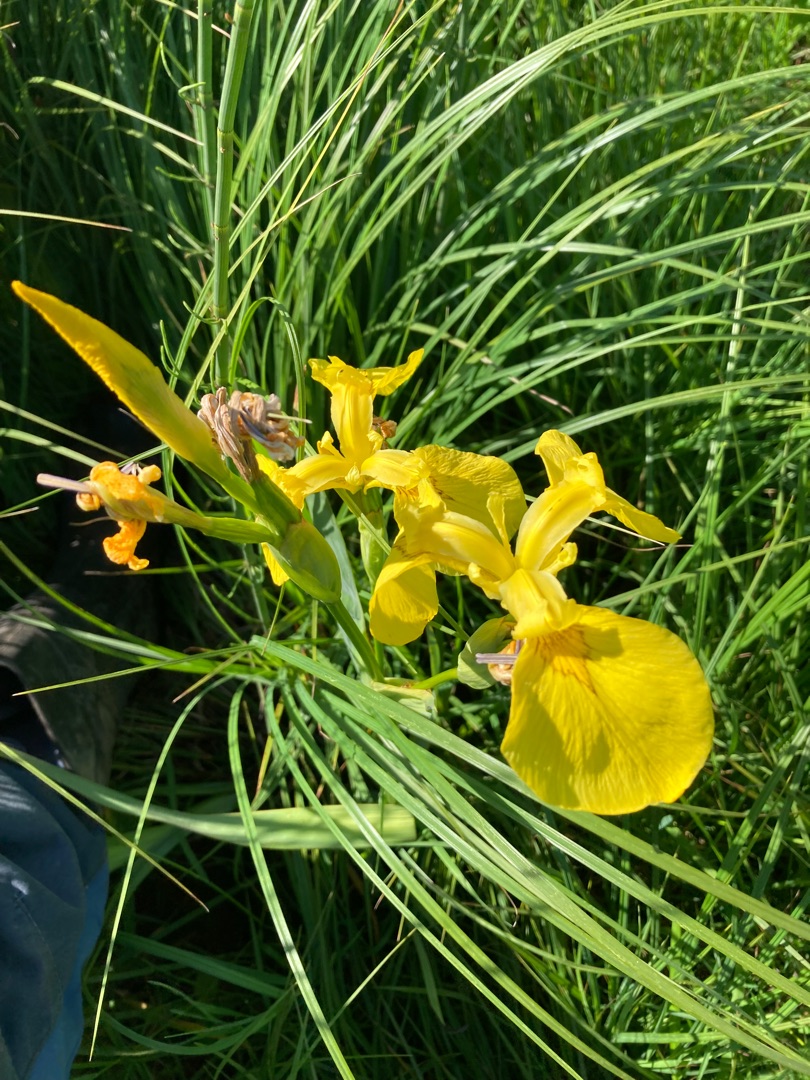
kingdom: Plantae
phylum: Tracheophyta
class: Liliopsida
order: Asparagales
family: Iridaceae
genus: Iris
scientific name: Iris pseudacorus
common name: Gul iris
